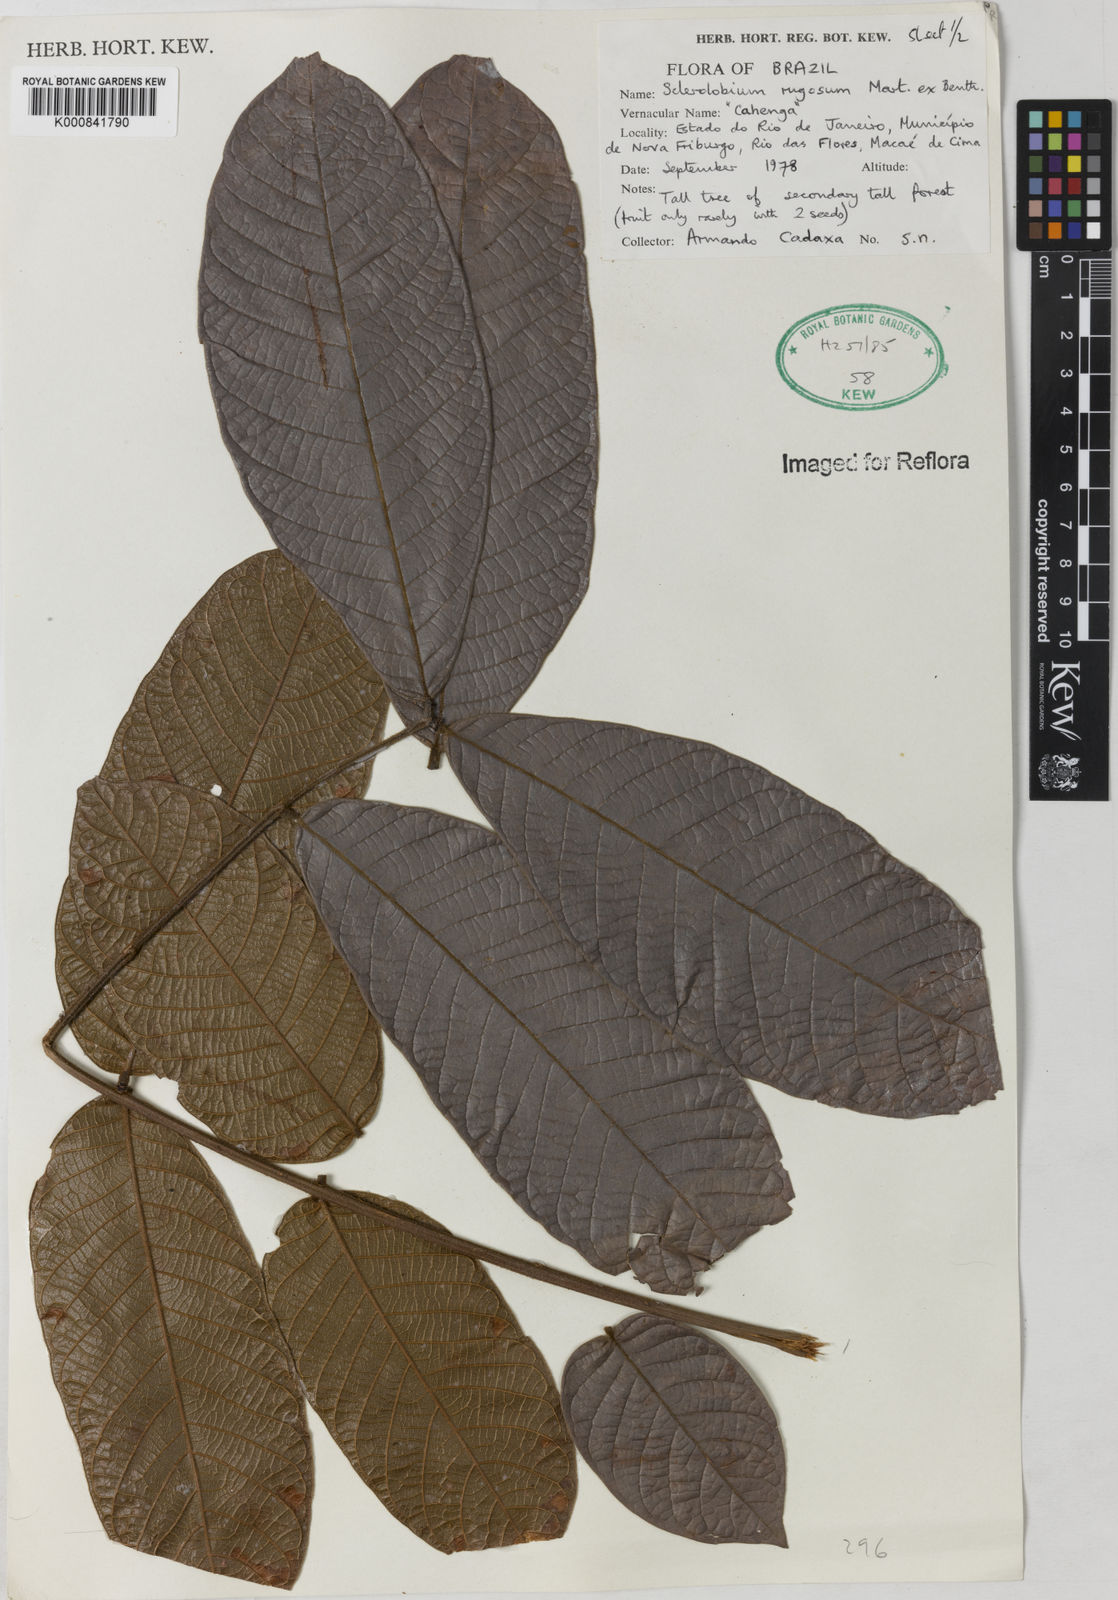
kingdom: Plantae
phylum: Tracheophyta
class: Magnoliopsida
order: Fabales
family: Fabaceae
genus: Tachigali
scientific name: Tachigali rugosa
